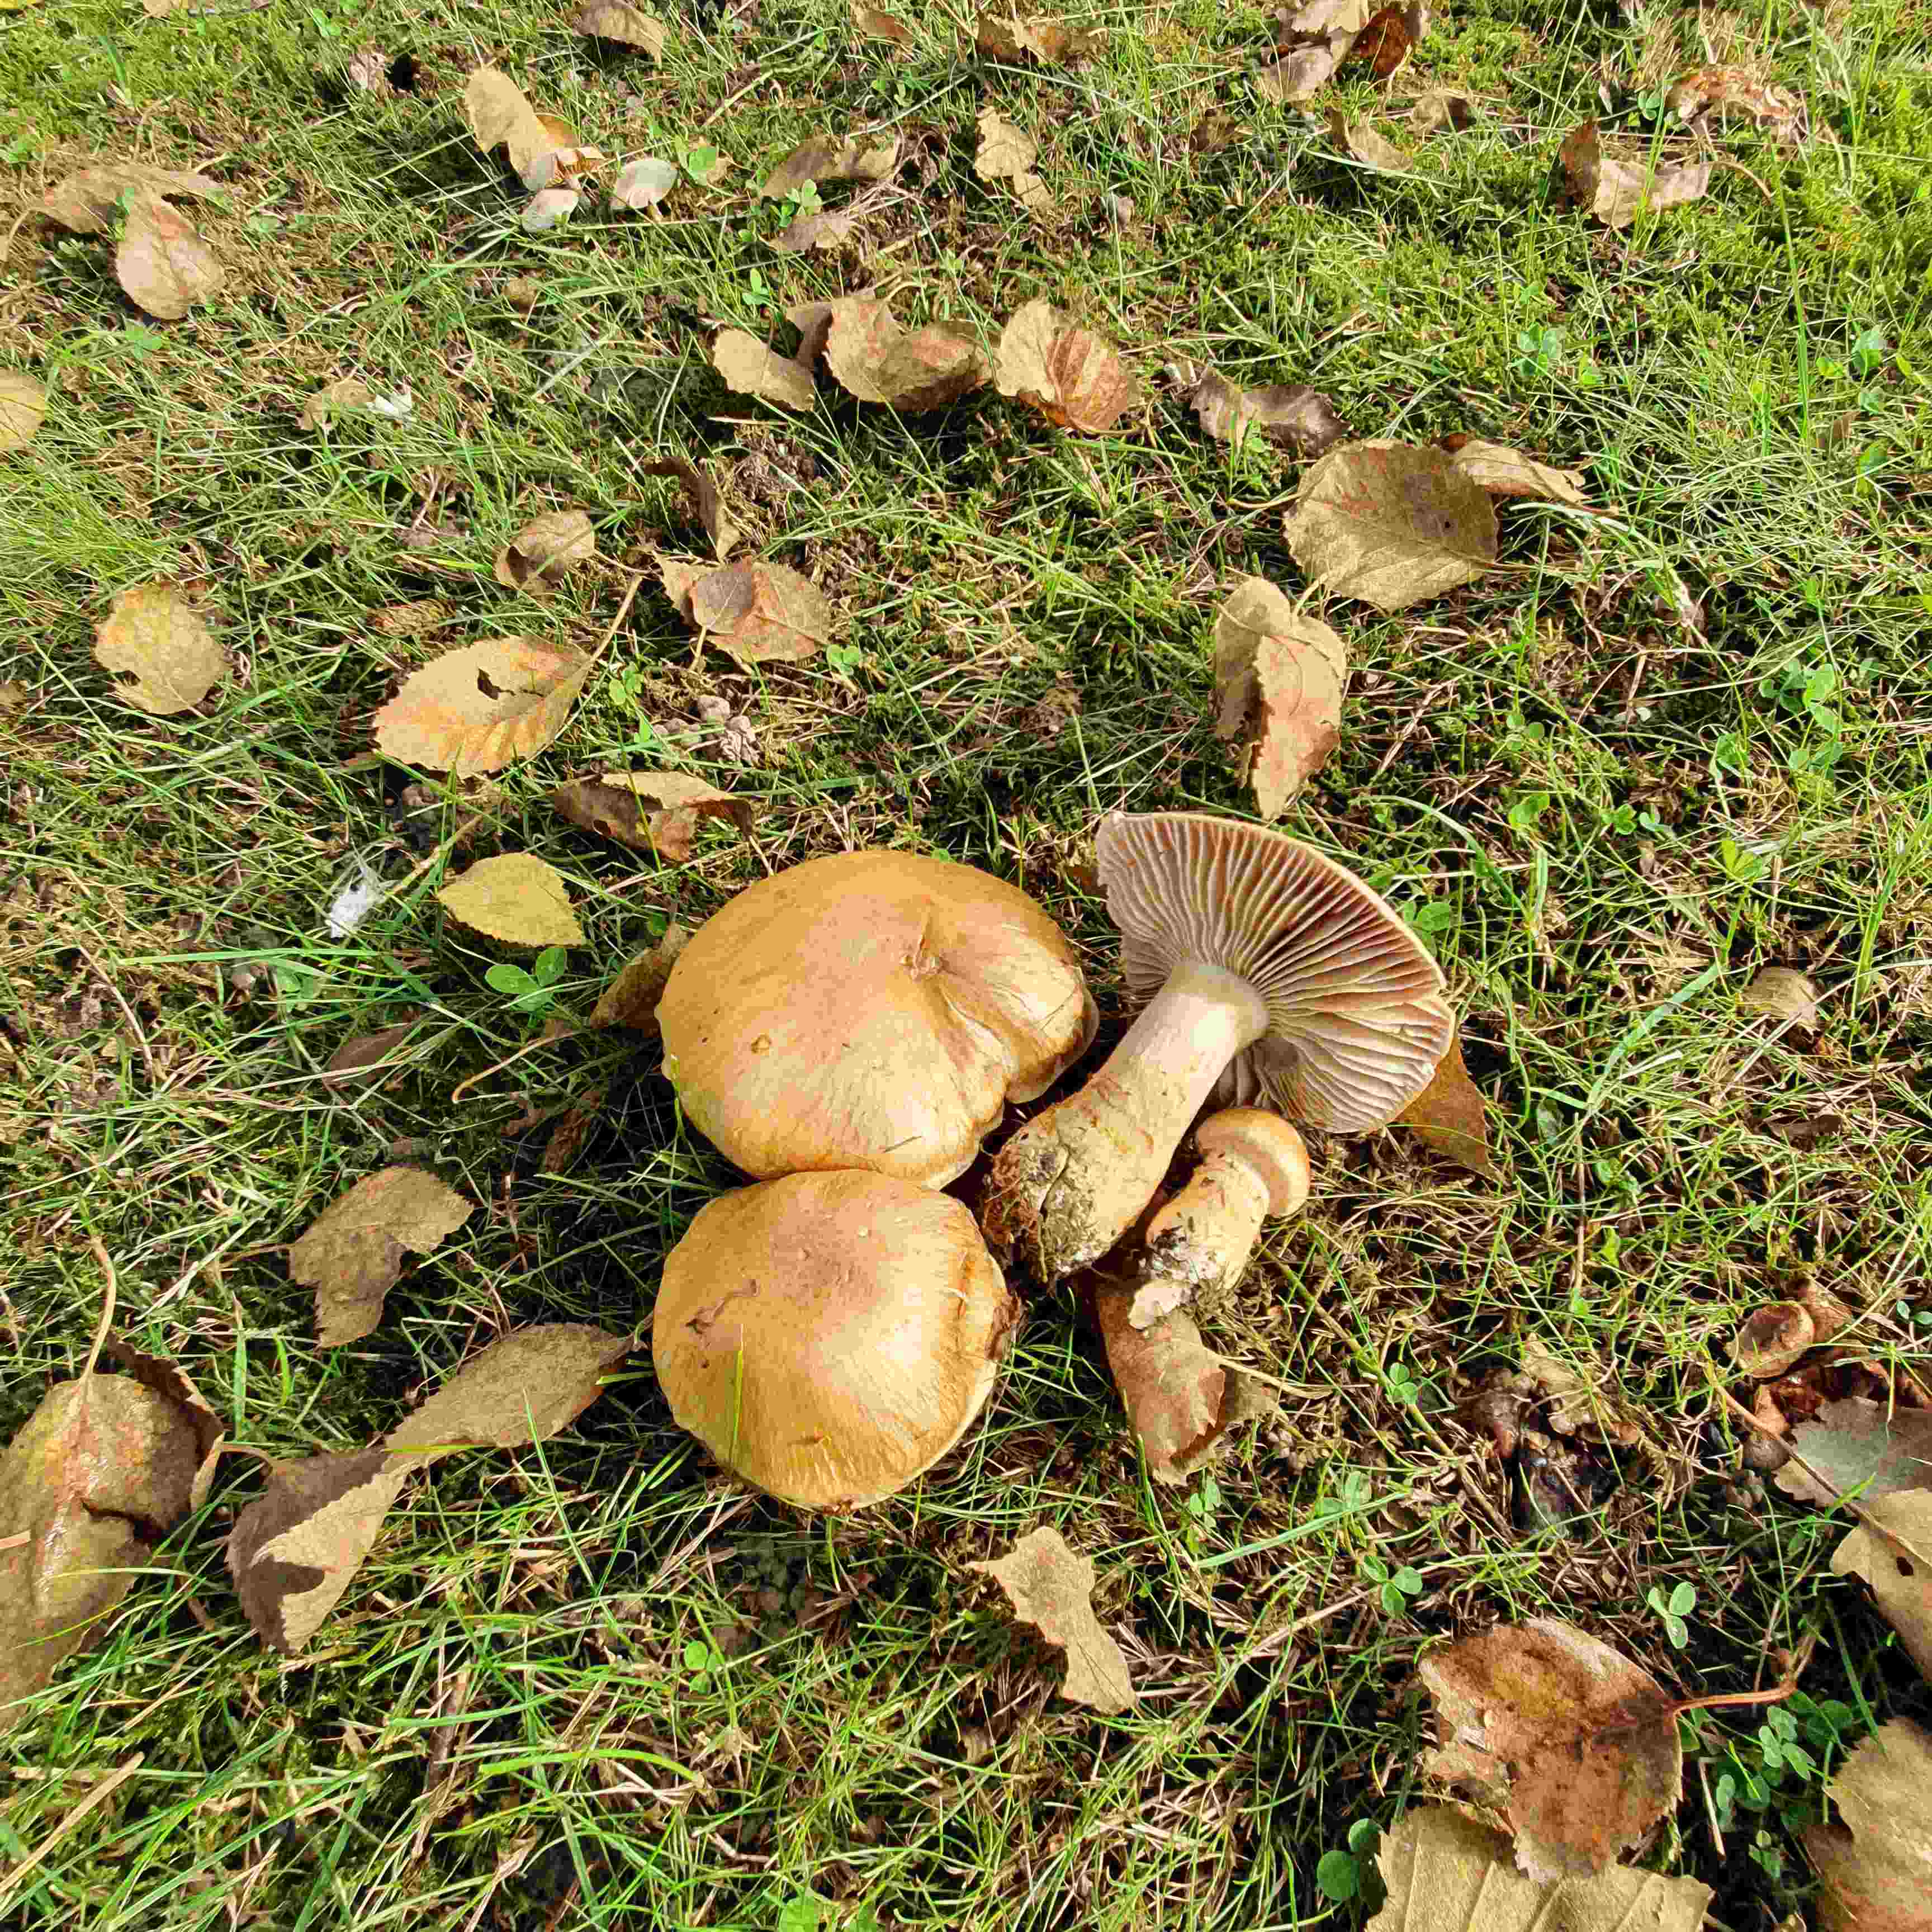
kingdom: Fungi
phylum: Basidiomycota
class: Agaricomycetes
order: Agaricales
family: Cortinariaceae
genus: Phlegmacium
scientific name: Phlegmacium triumphans
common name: gulbæltet slørhat
